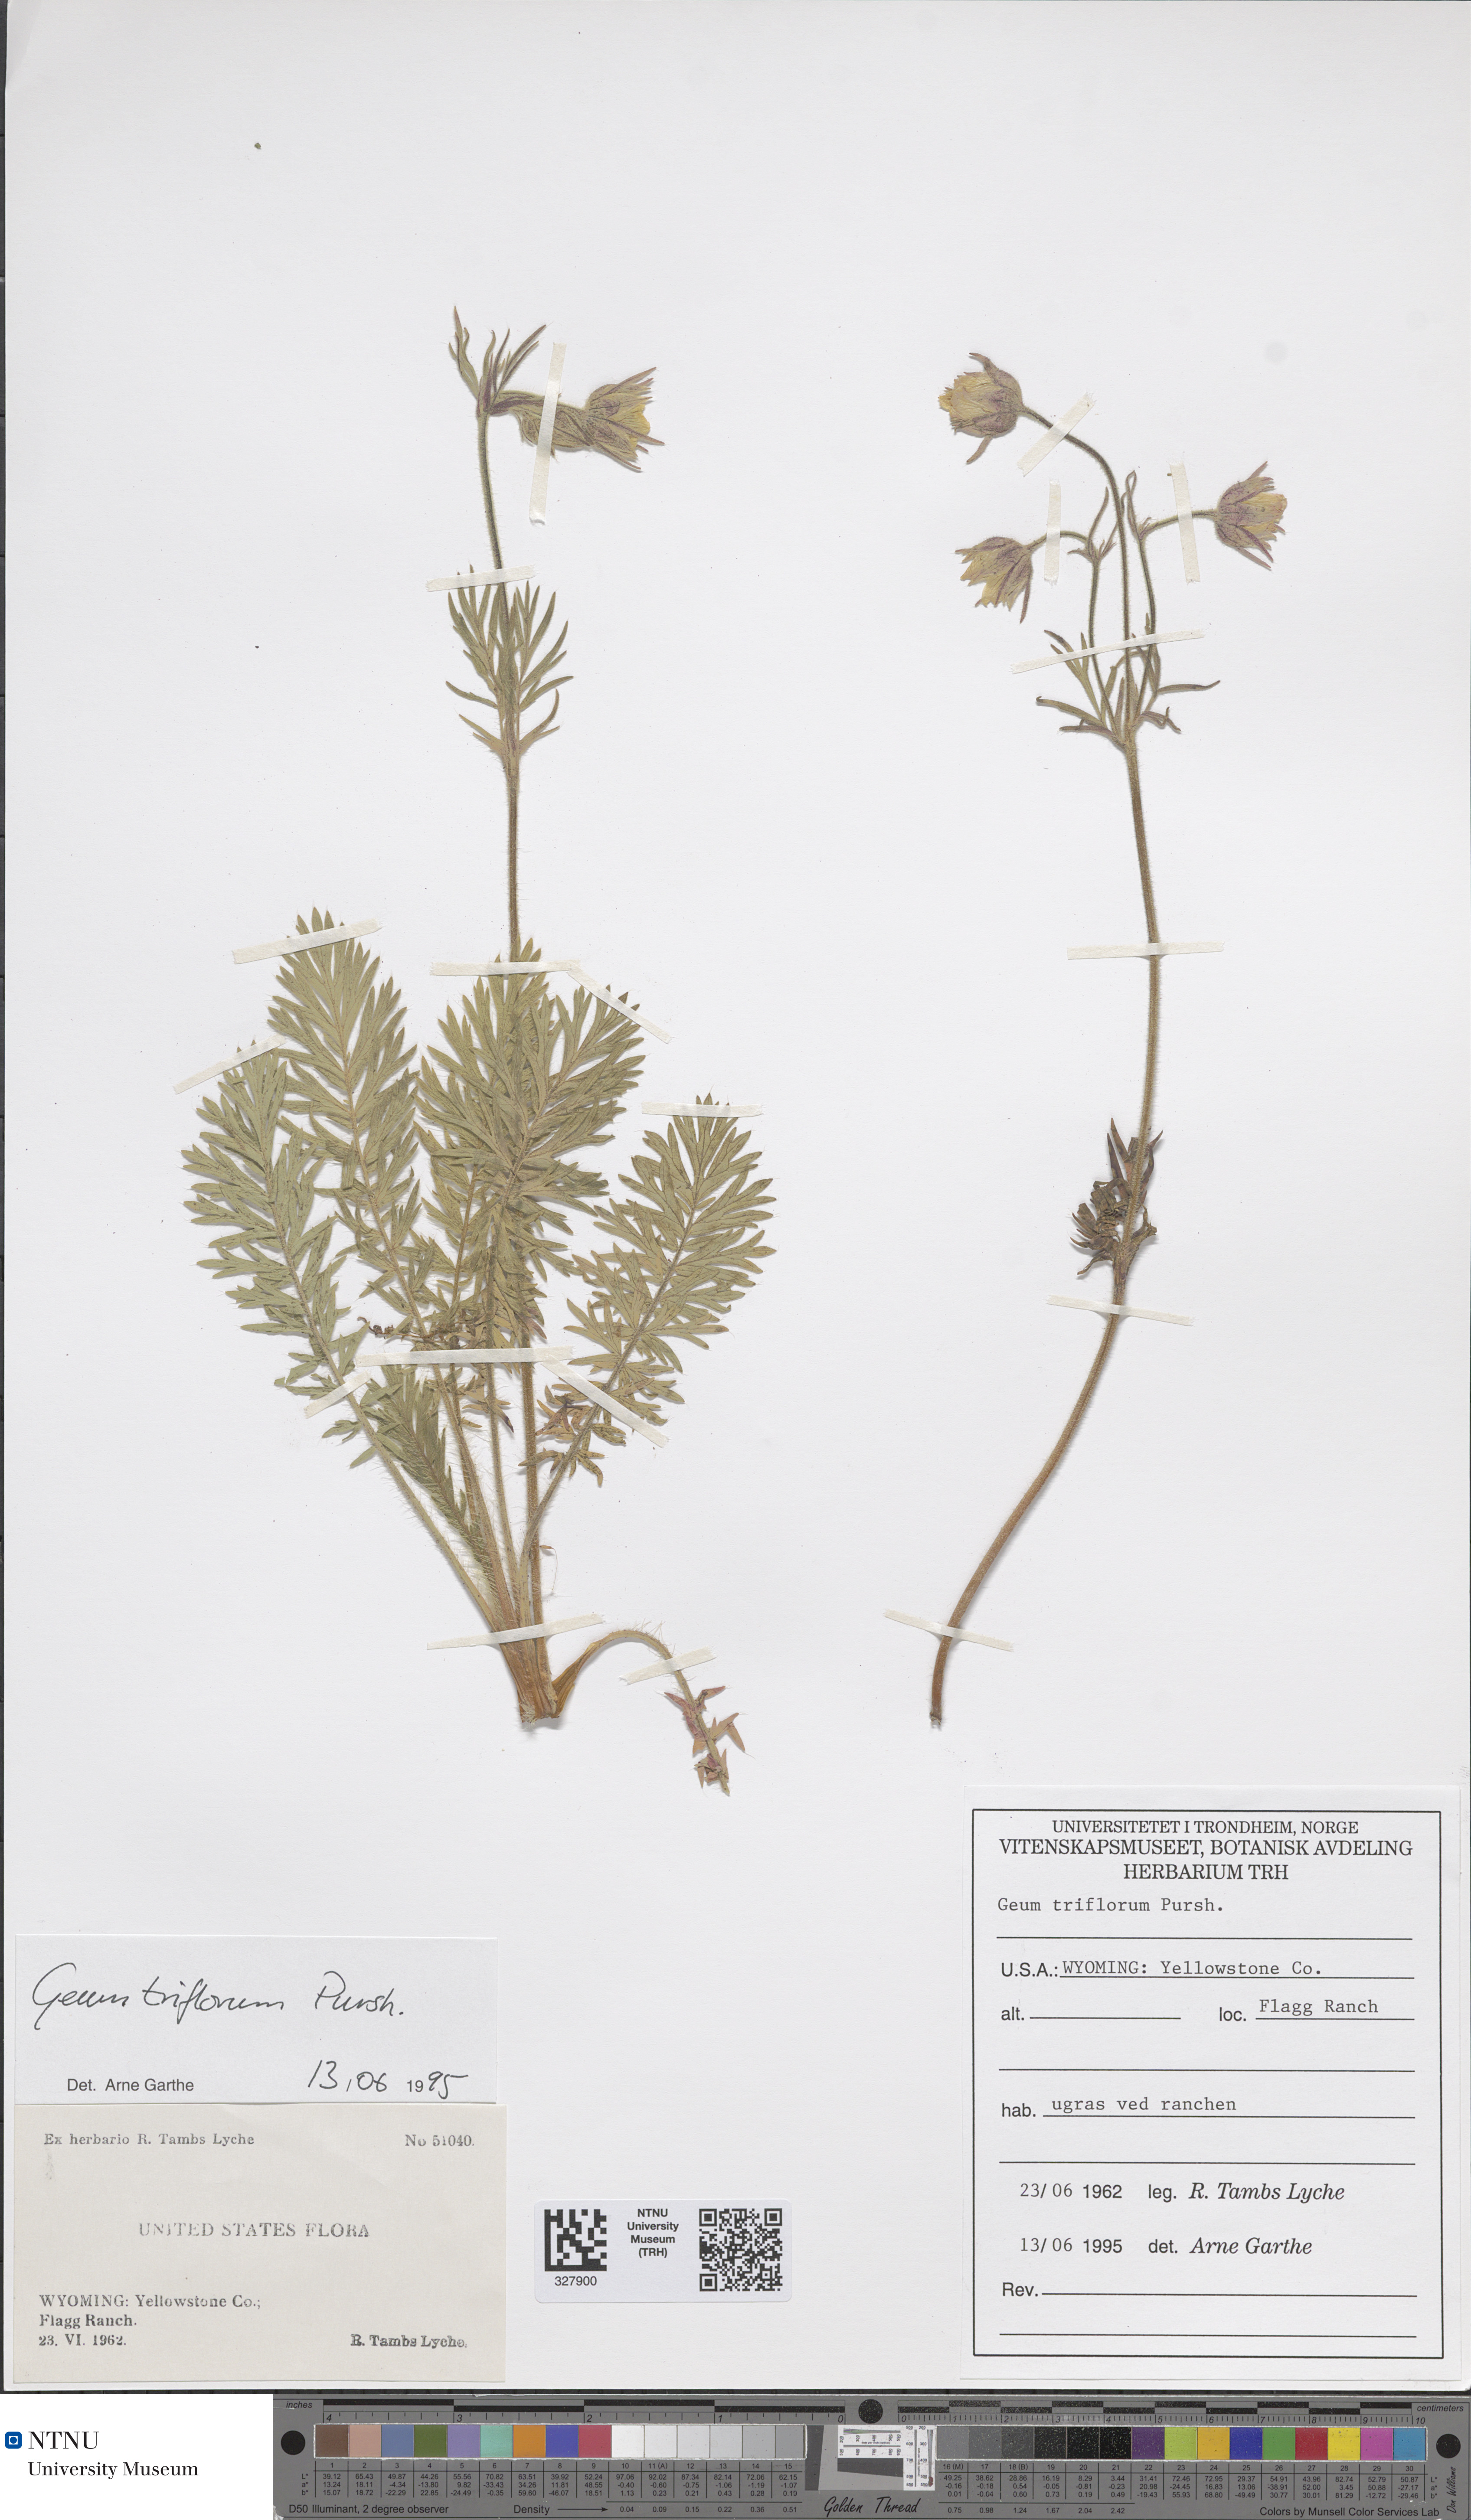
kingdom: Plantae
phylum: Tracheophyta
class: Magnoliopsida
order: Rosales
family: Rosaceae
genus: Geum
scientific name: Geum triflorum
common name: Old man's whiskers
